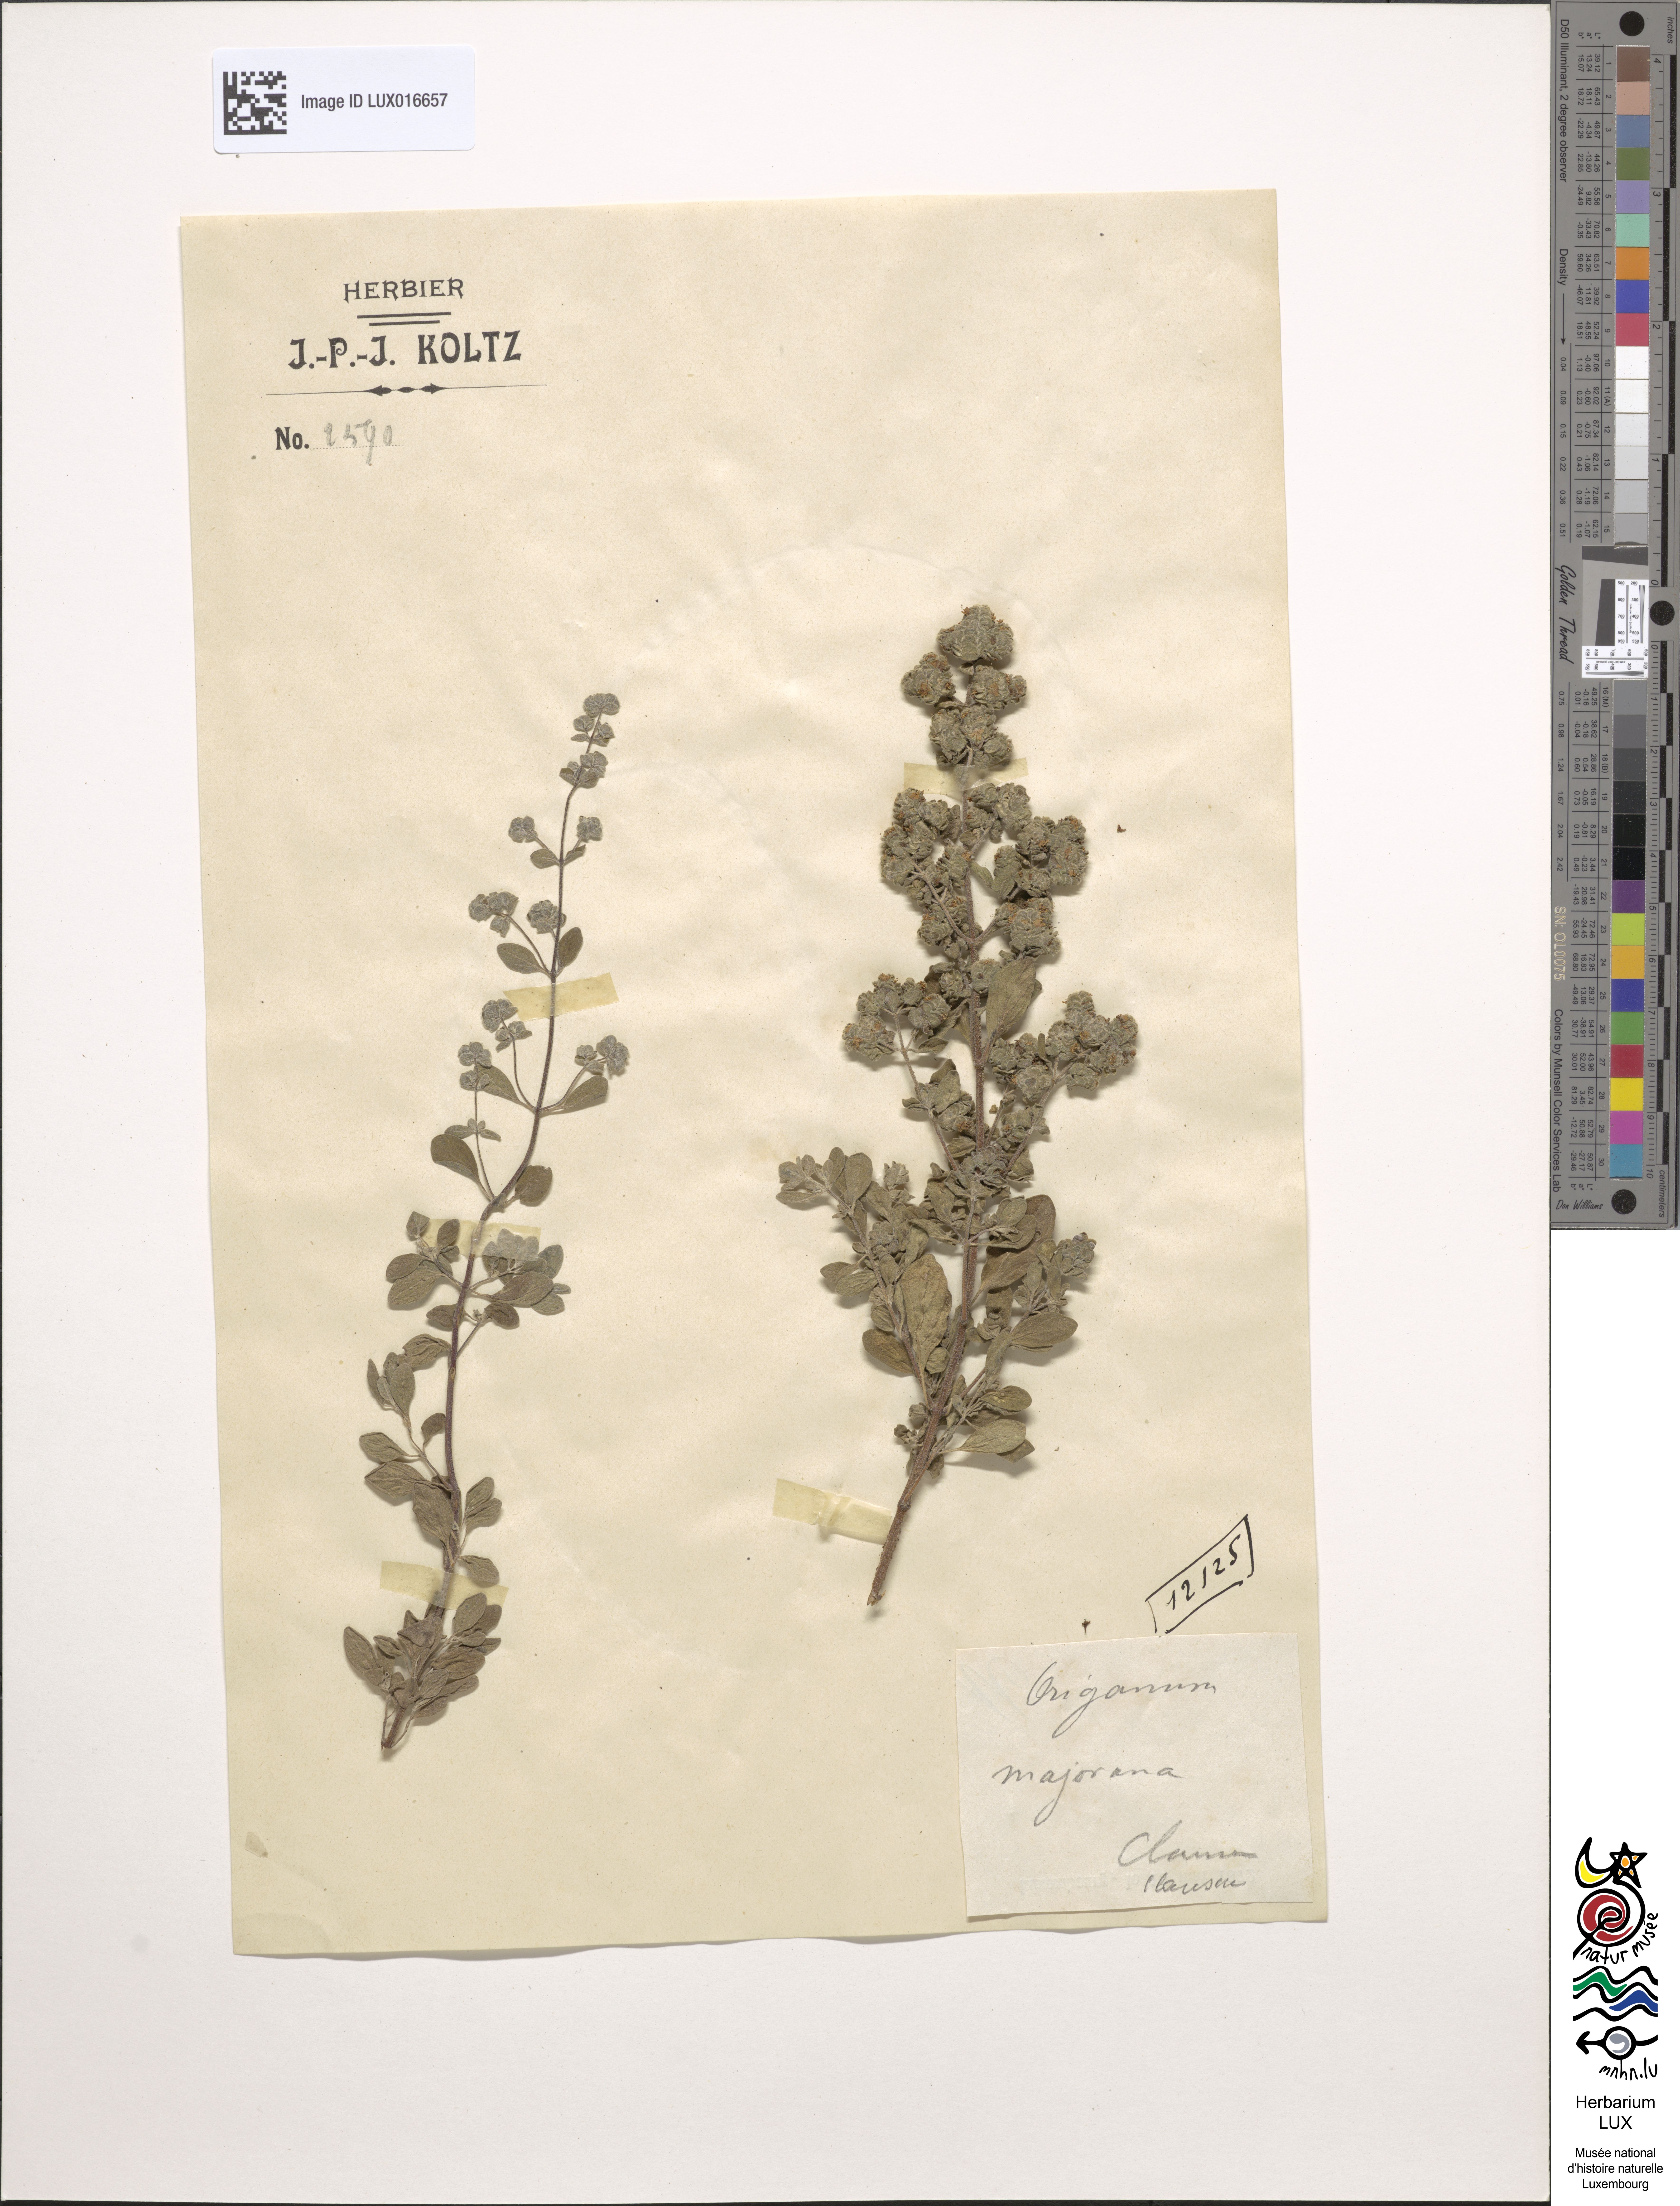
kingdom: Plantae
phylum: Tracheophyta
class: Magnoliopsida
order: Lamiales
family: Lamiaceae
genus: Origanum
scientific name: Origanum majorana
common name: Sweet marjoram
